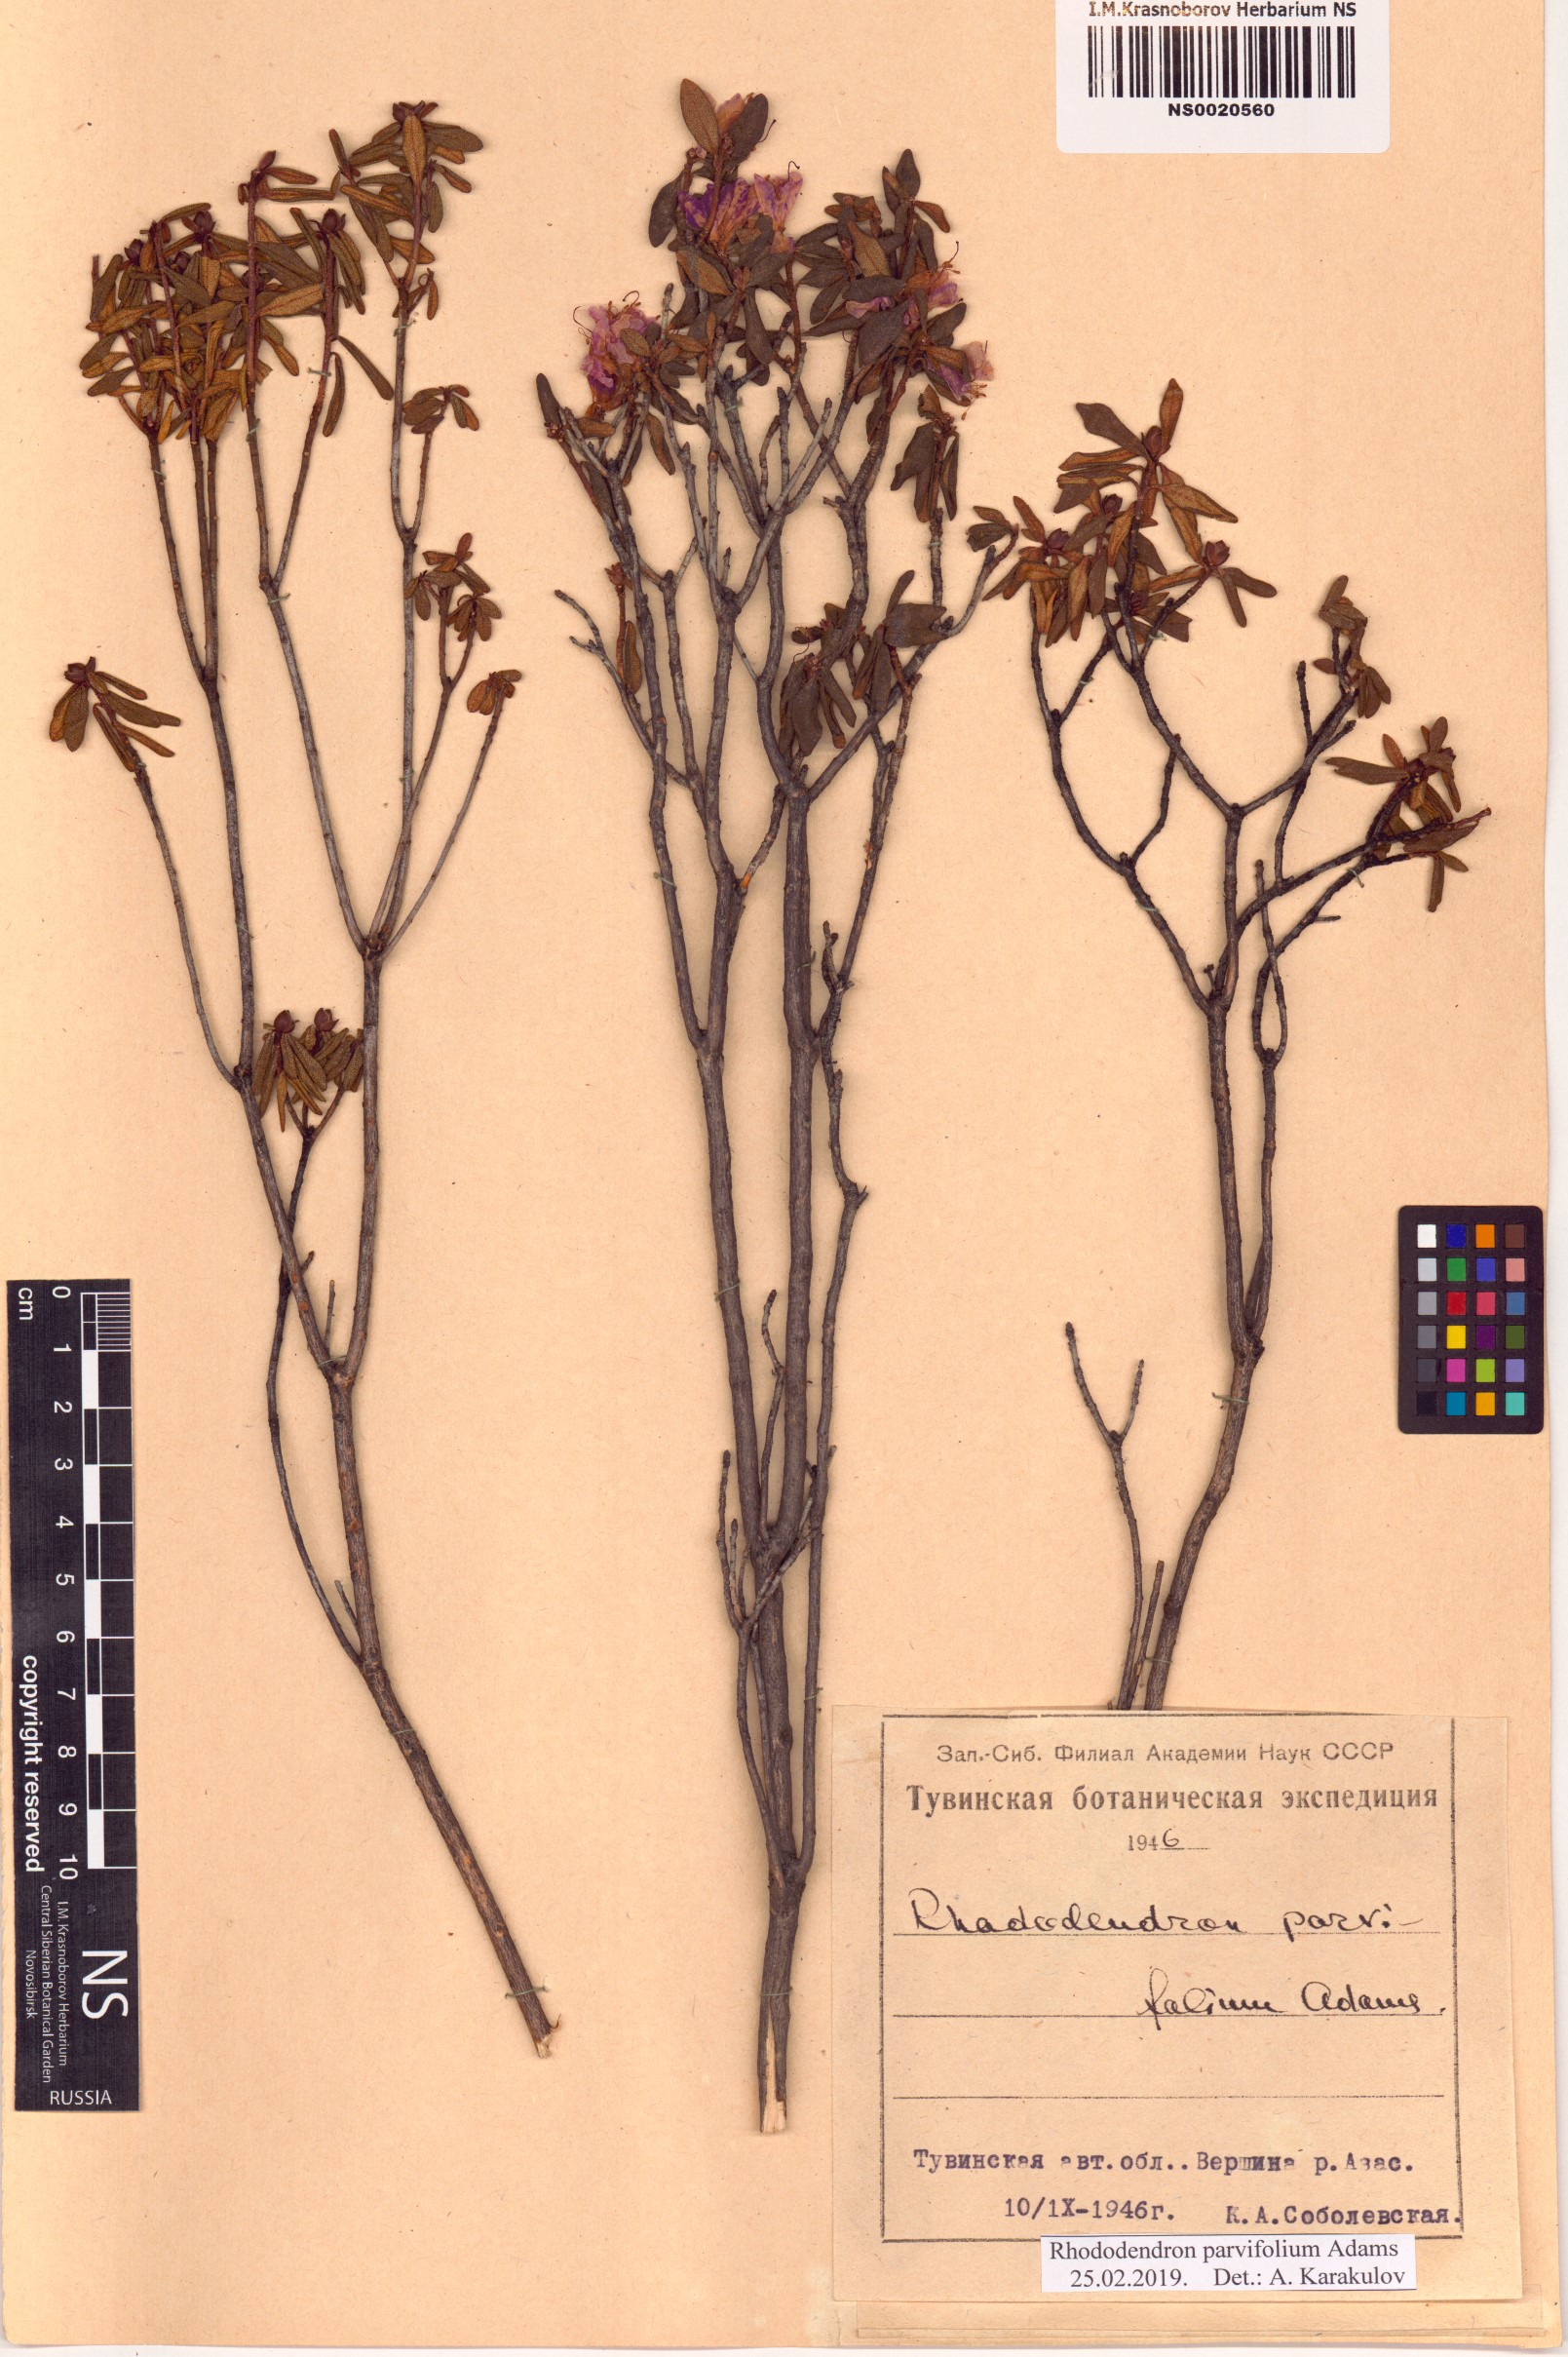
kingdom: Plantae
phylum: Tracheophyta
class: Magnoliopsida
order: Ericales
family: Ericaceae
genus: Rhododendron
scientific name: Rhododendron parvifolium
